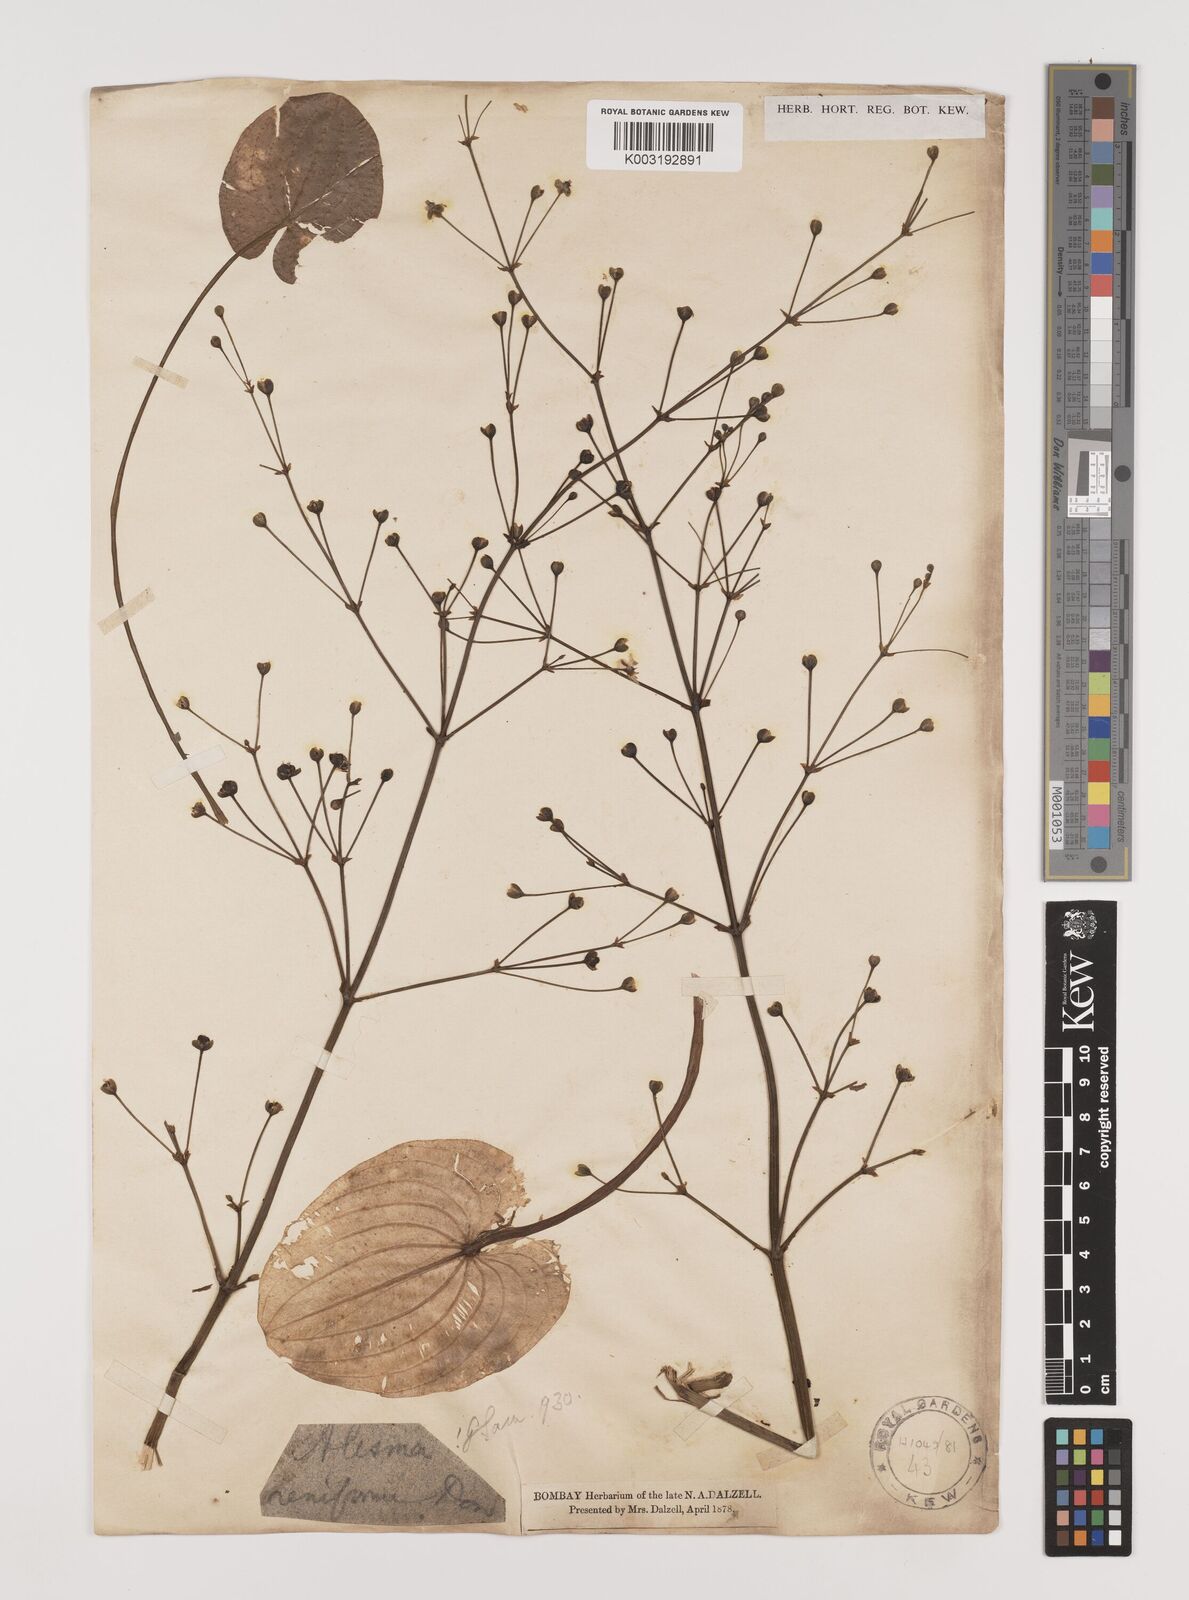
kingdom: Plantae
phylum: Tracheophyta
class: Liliopsida
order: Alismatales
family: Alismataceae
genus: Caldesia
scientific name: Caldesia parnassifolia
